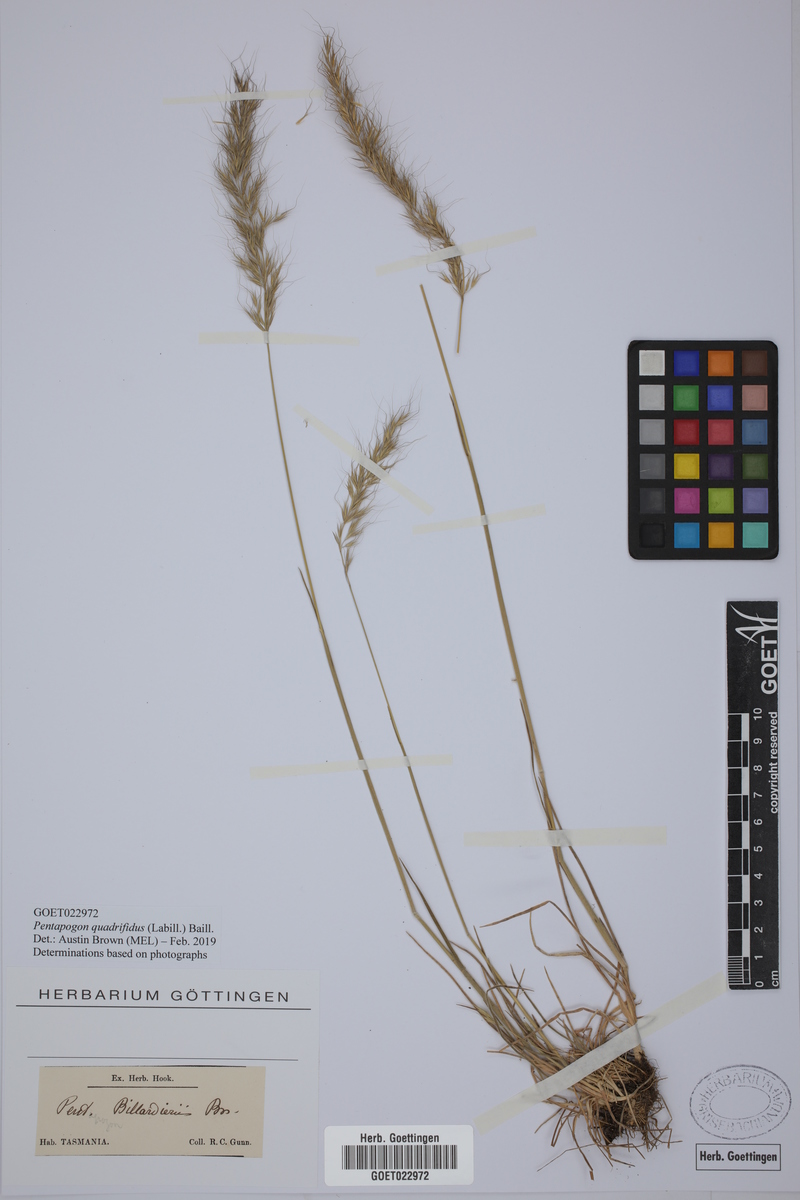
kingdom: Plantae
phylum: Tracheophyta
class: Liliopsida
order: Poales
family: Poaceae
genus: Pentapogon
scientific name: Pentapogon quadrifidus
